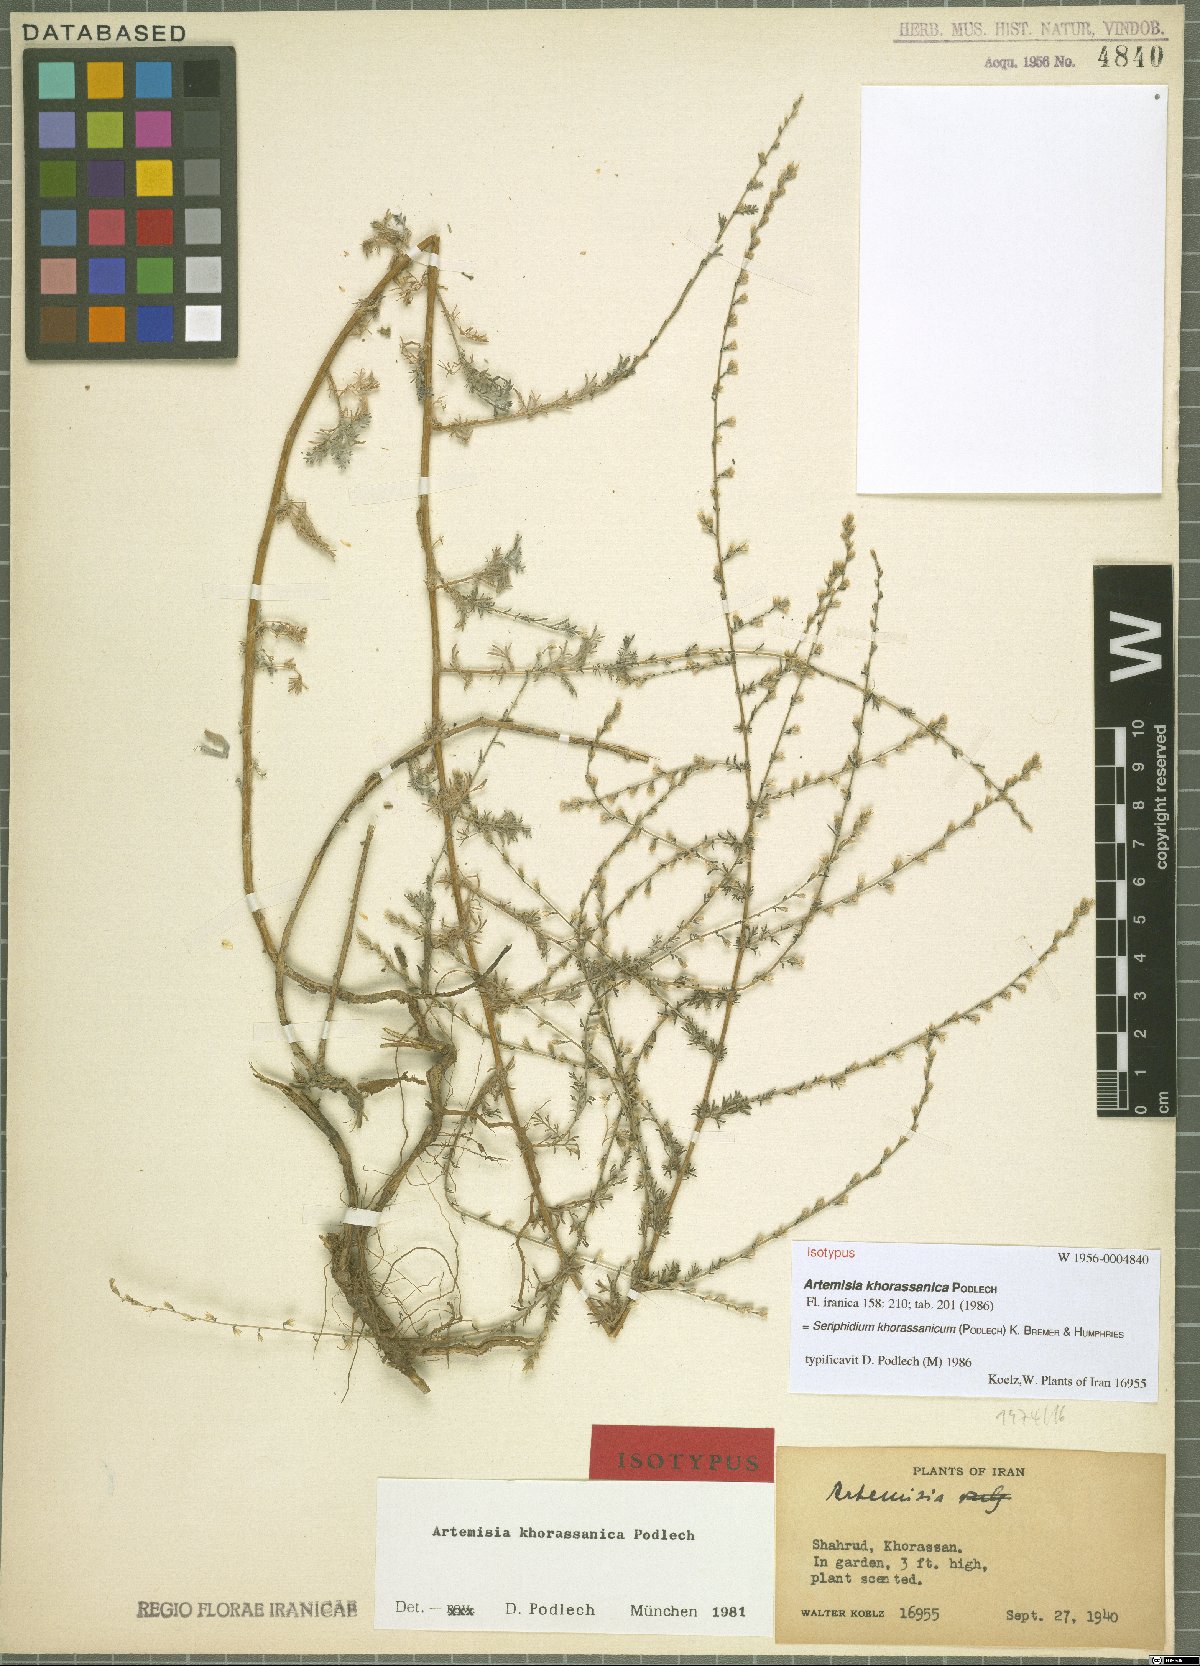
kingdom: Plantae
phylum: Tracheophyta
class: Magnoliopsida
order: Asterales
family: Asteraceae
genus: Artemisia
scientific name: Artemisia oliveriana
